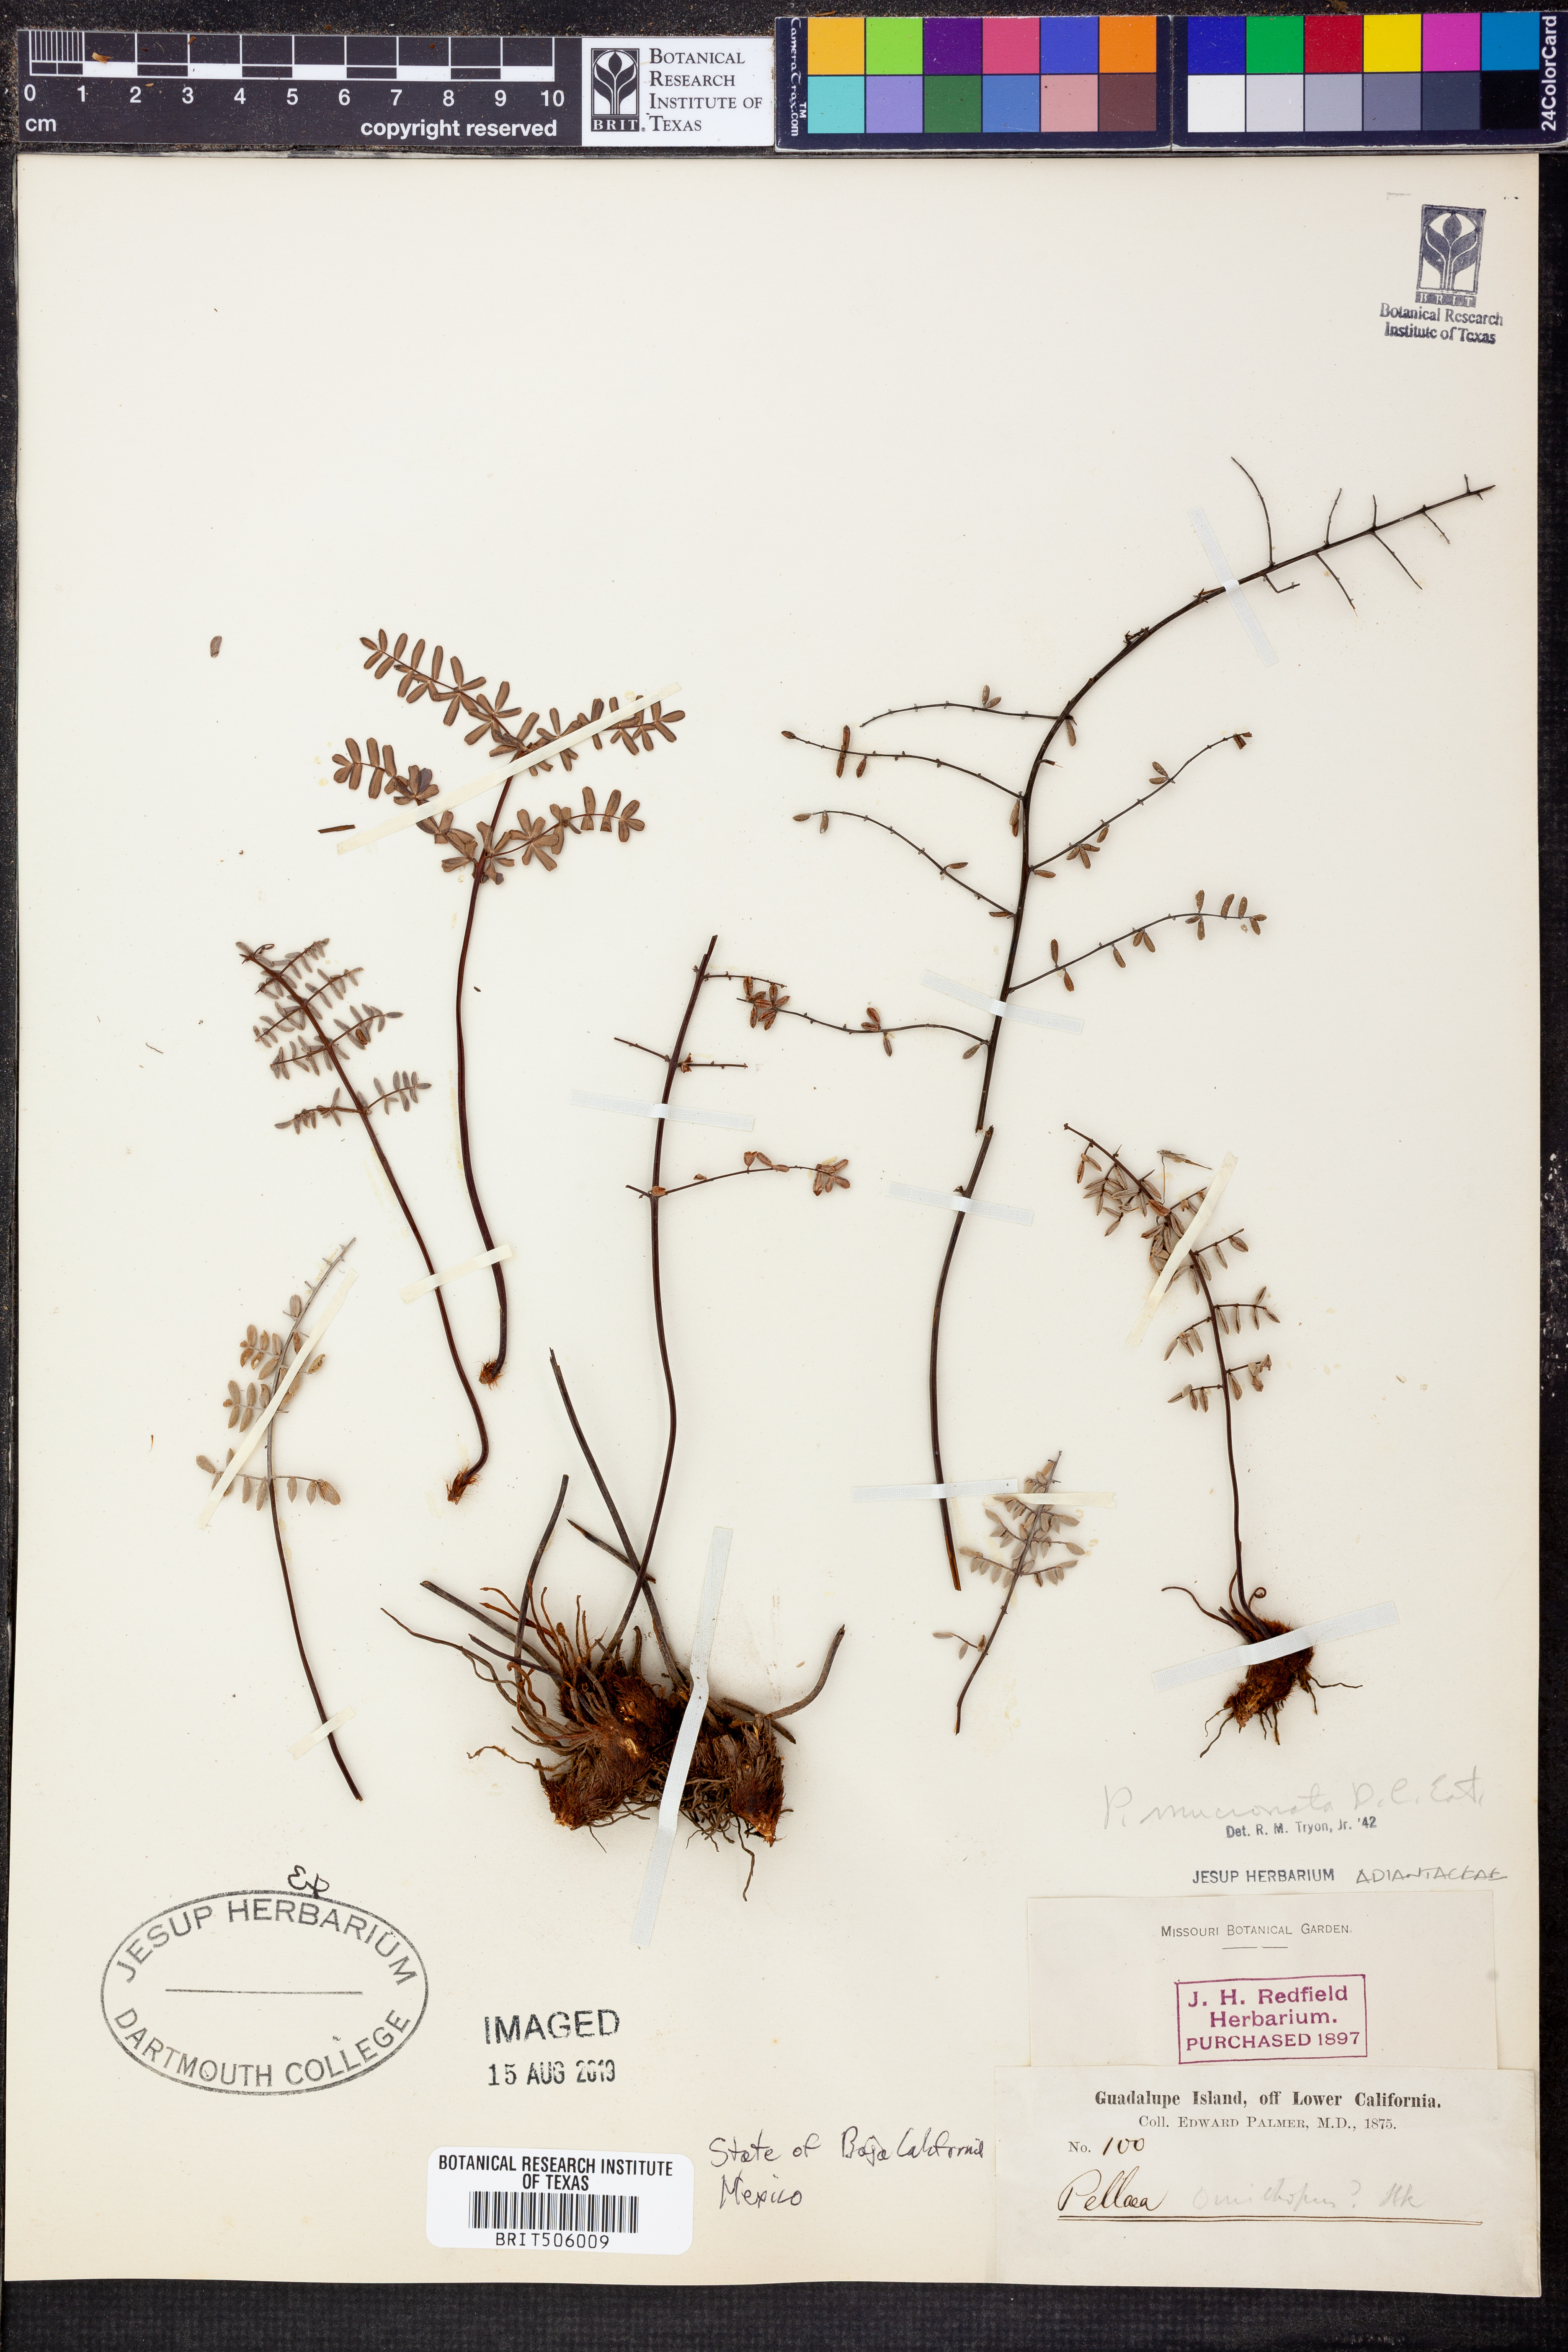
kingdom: Plantae
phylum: Tracheophyta
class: Polypodiopsida
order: Polypodiales
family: Pteridaceae
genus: Pellaea
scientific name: Pellaea atropurpurea
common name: Hairy cliffbrake
